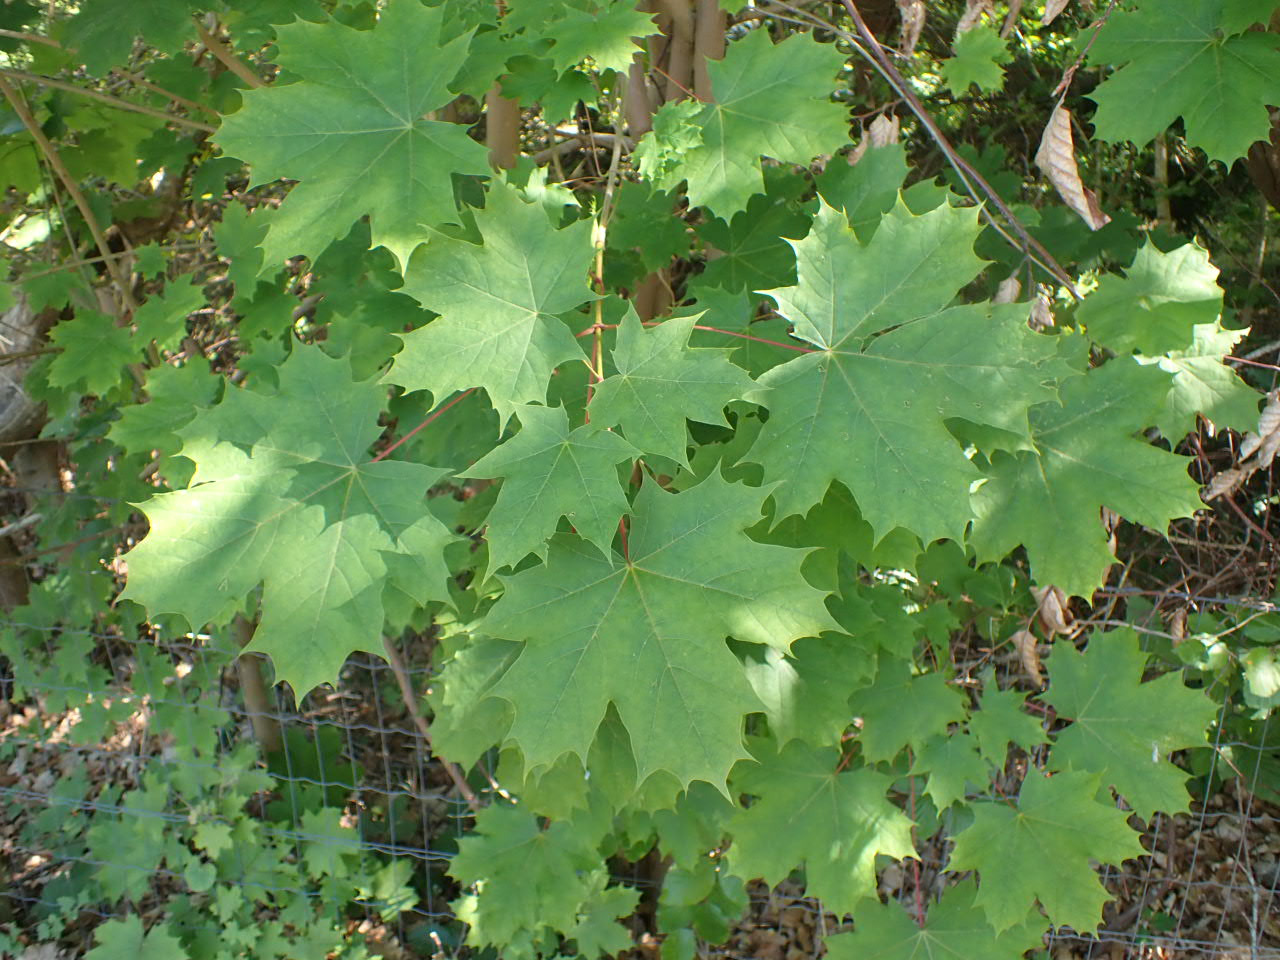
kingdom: Plantae
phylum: Tracheophyta
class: Magnoliopsida
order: Sapindales
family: Sapindaceae
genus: Acer
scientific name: Acer platanoides
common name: Spids-løn
